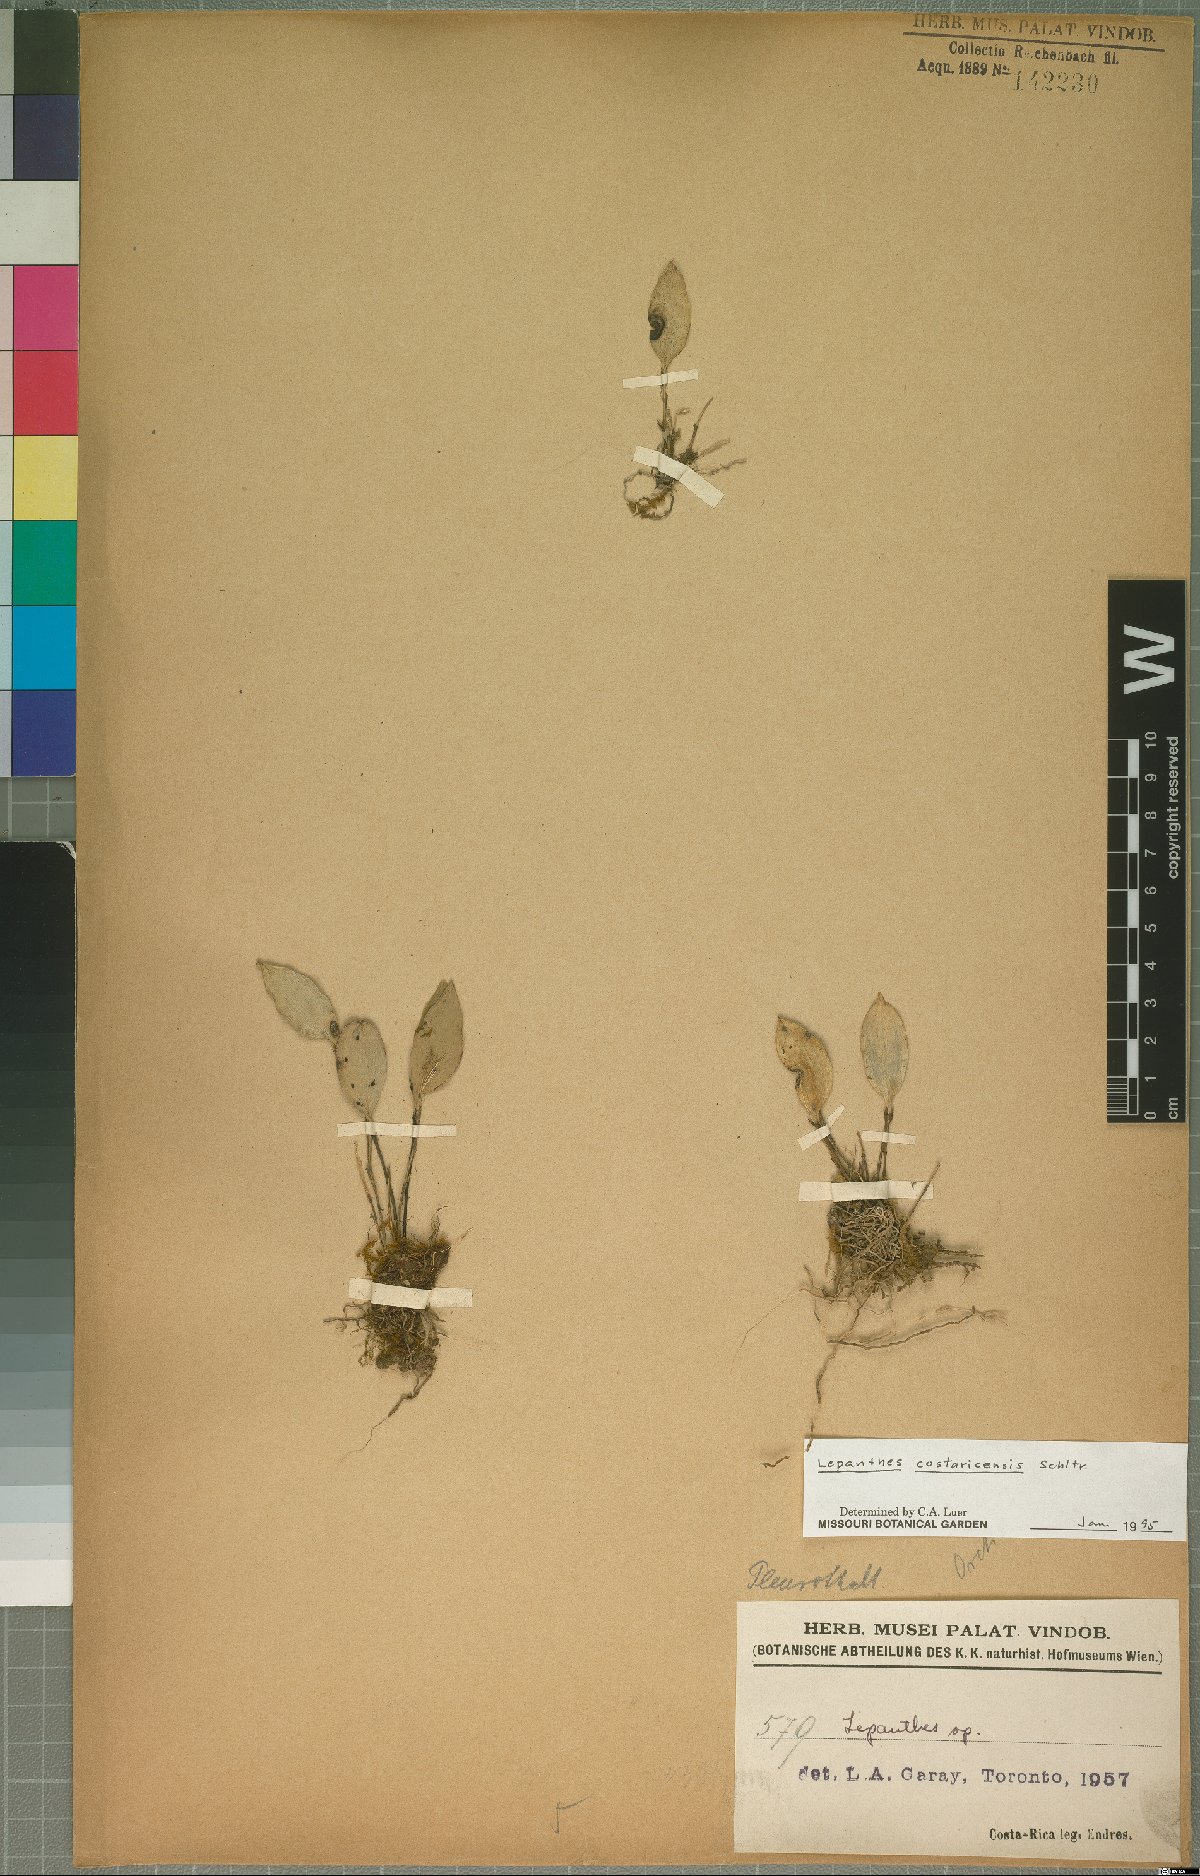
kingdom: Plantae
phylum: Tracheophyta
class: Liliopsida
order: Asparagales
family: Orchidaceae
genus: Lepanthes
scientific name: Lepanthes costaricensis
